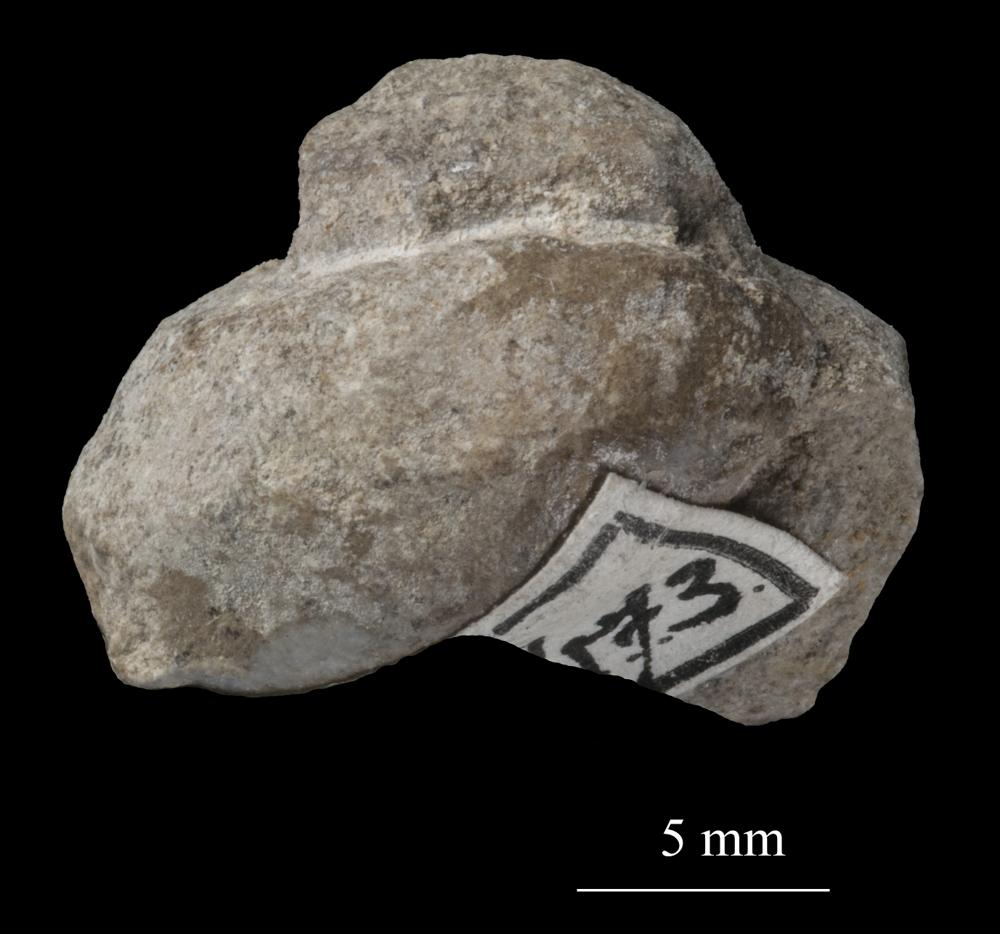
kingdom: Animalia
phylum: Mollusca
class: Gastropoda
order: Pleurotomariida
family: Phymatopleuridae
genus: Worthenia
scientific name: Worthenia
